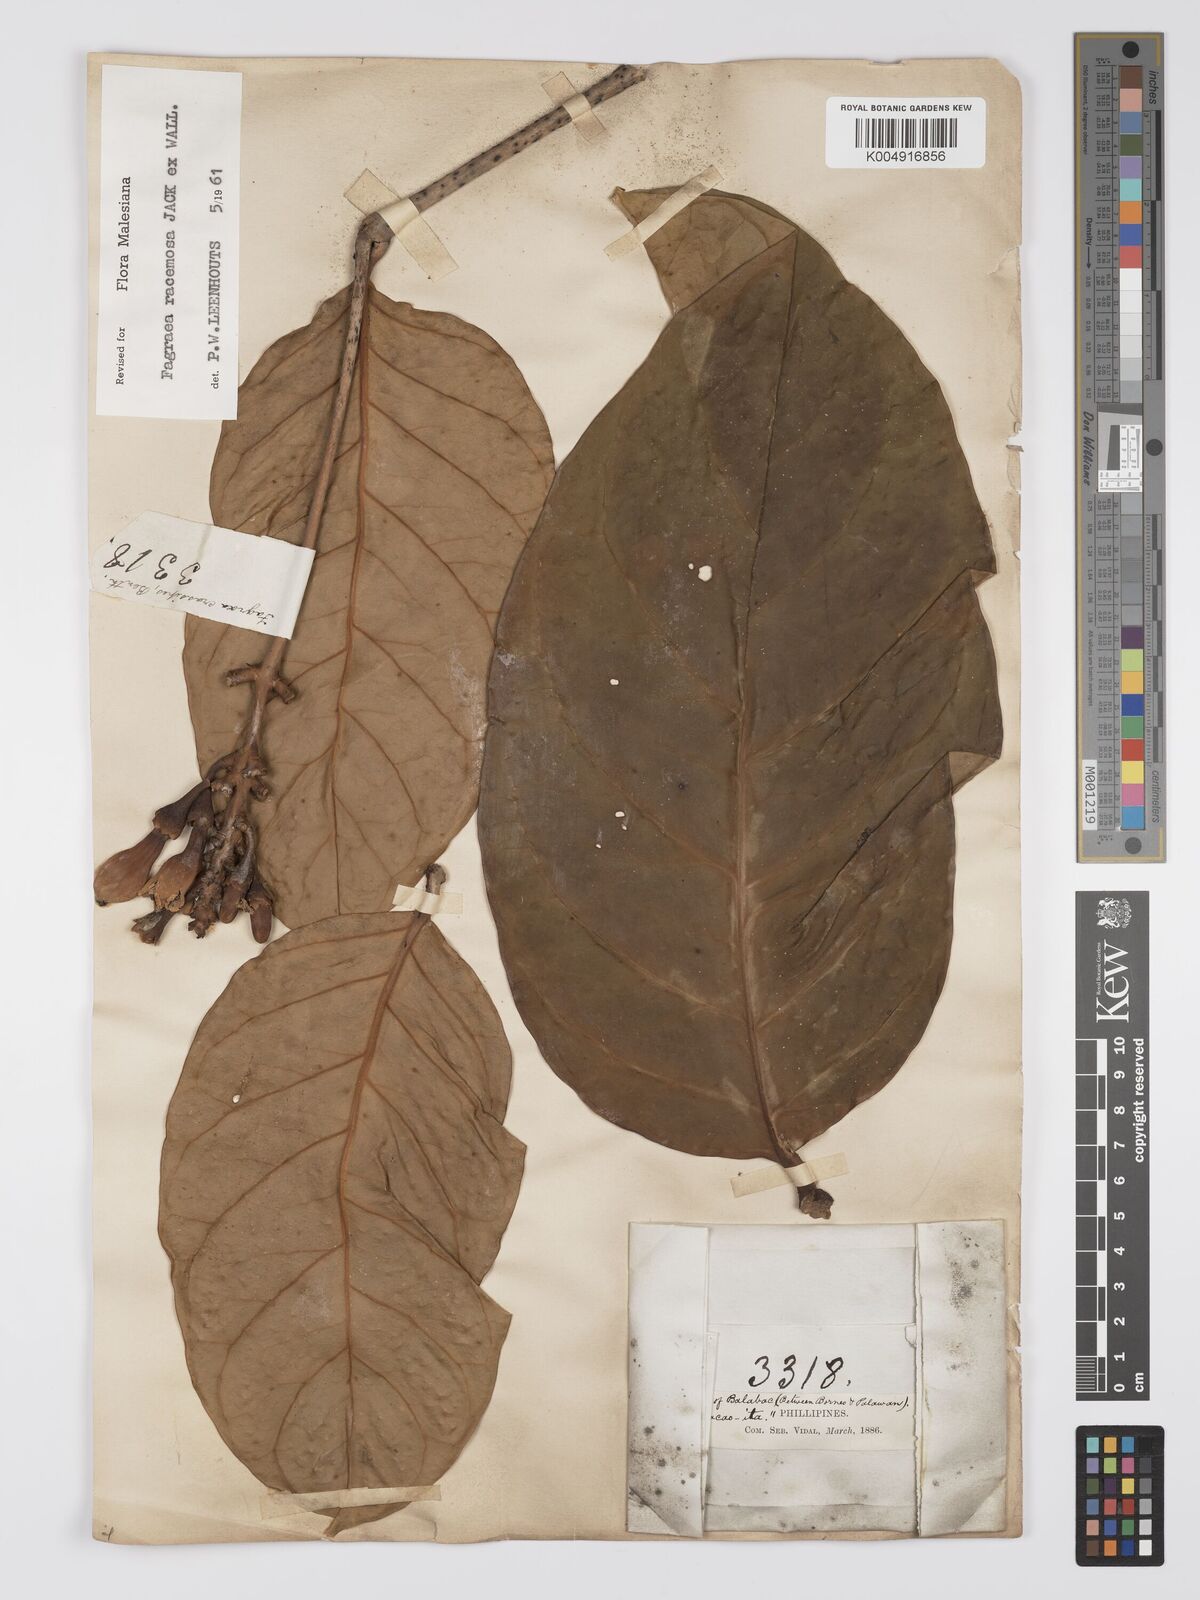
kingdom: Plantae
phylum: Tracheophyta
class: Magnoliopsida
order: Gentianales
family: Gentianaceae
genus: Utania
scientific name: Utania racemosa
